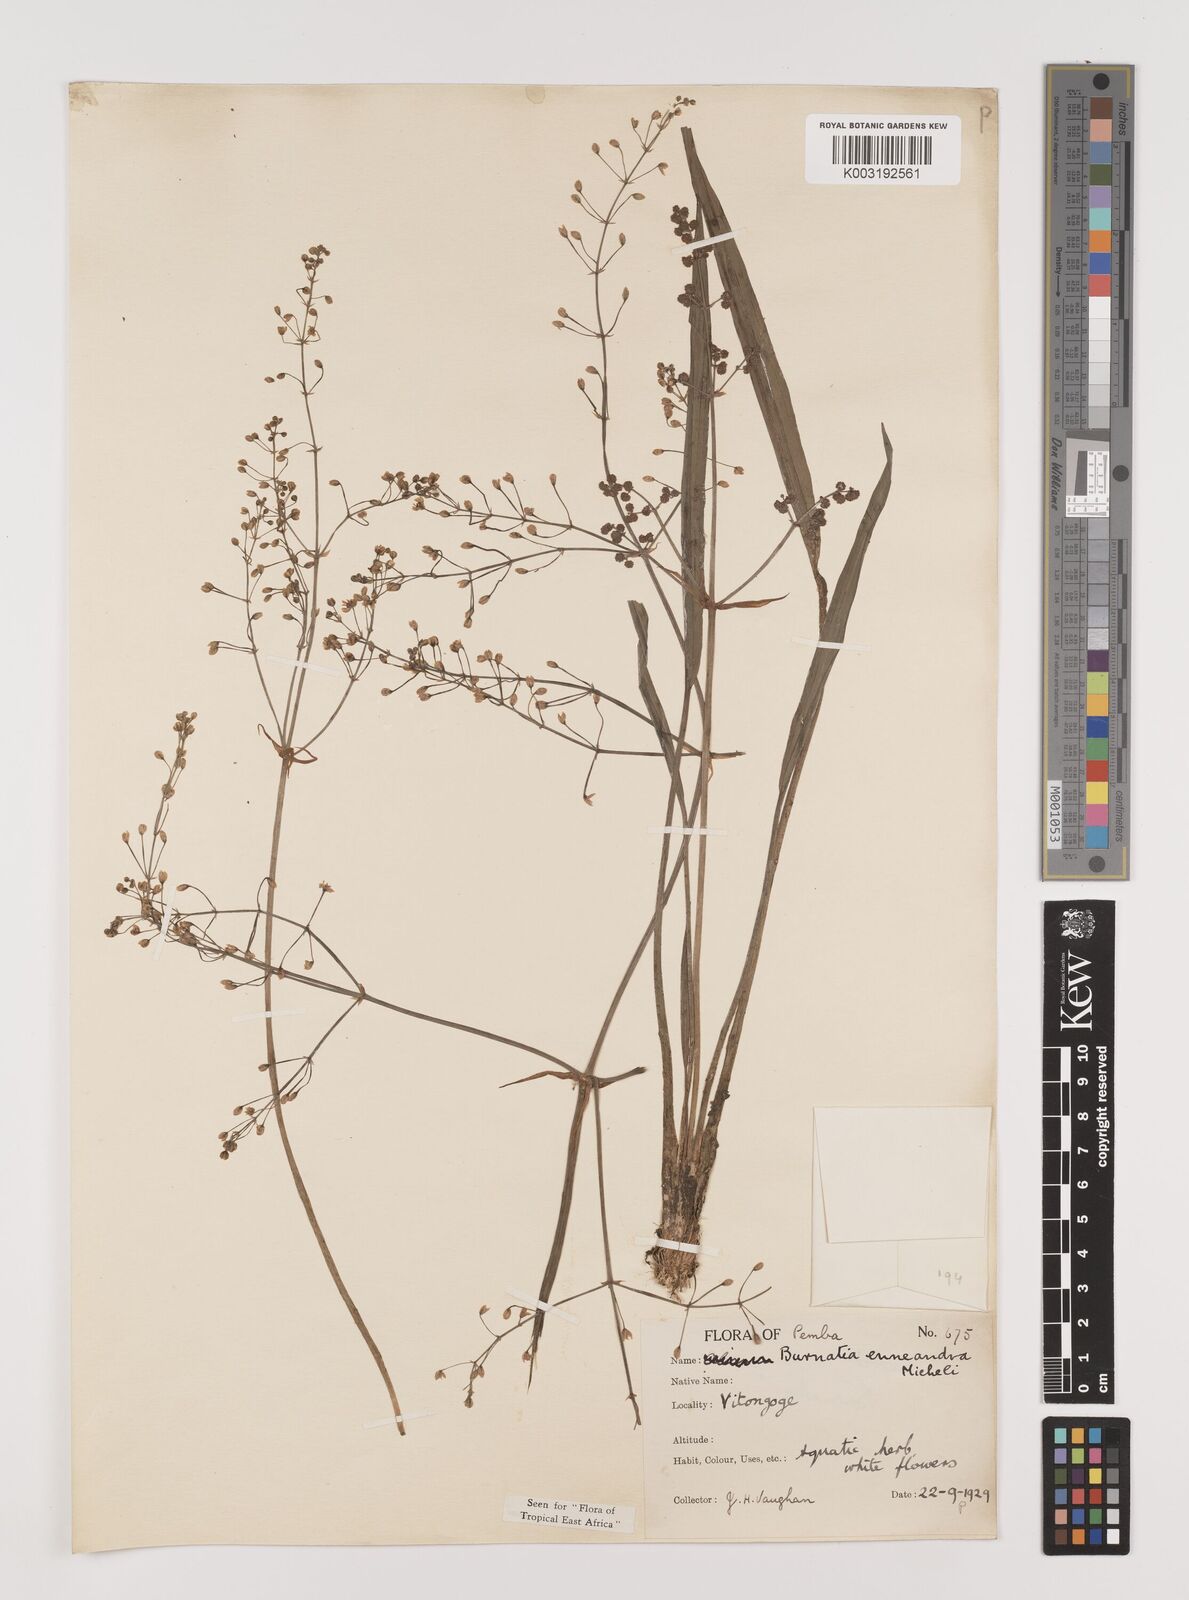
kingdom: Plantae
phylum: Tracheophyta
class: Liliopsida
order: Alismatales
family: Alismataceae
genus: Burnatia
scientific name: Burnatia enneandra
